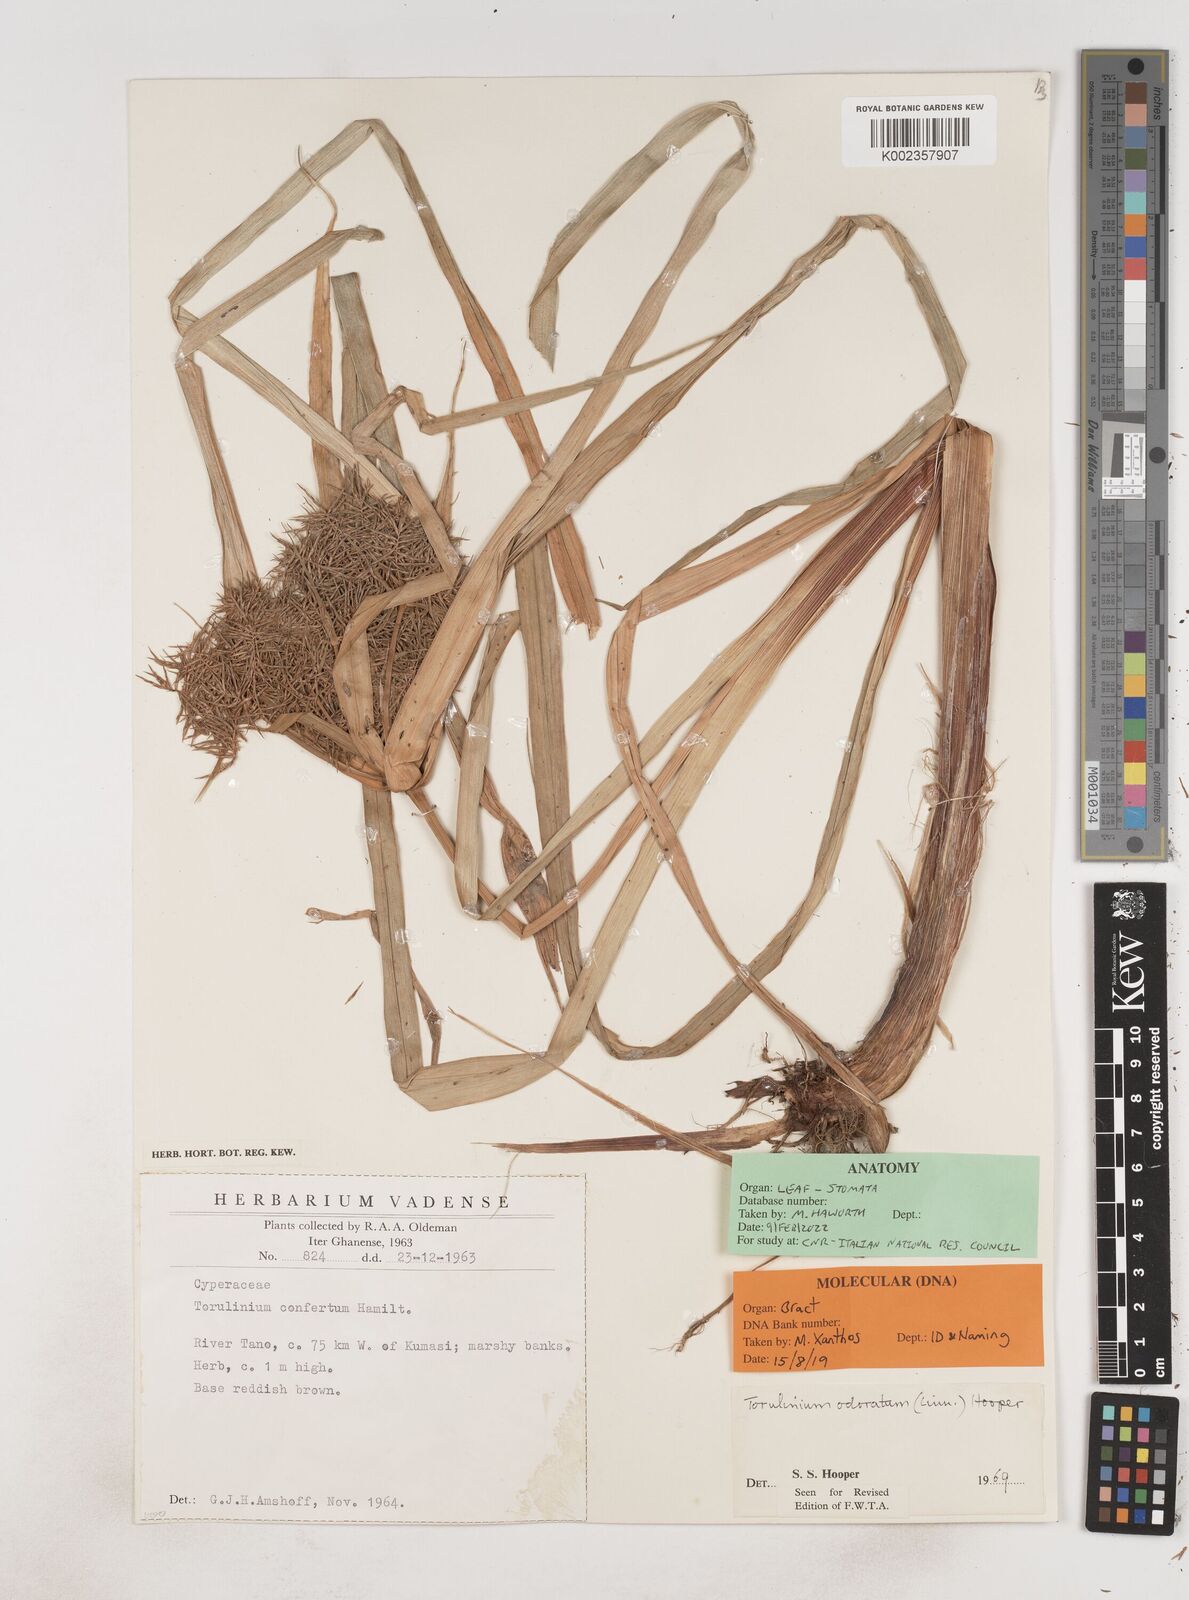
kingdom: Plantae
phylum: Tracheophyta
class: Liliopsida
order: Poales
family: Cyperaceae
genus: Cyperus
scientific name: Cyperus odoratus
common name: Fragrant flatsedge
